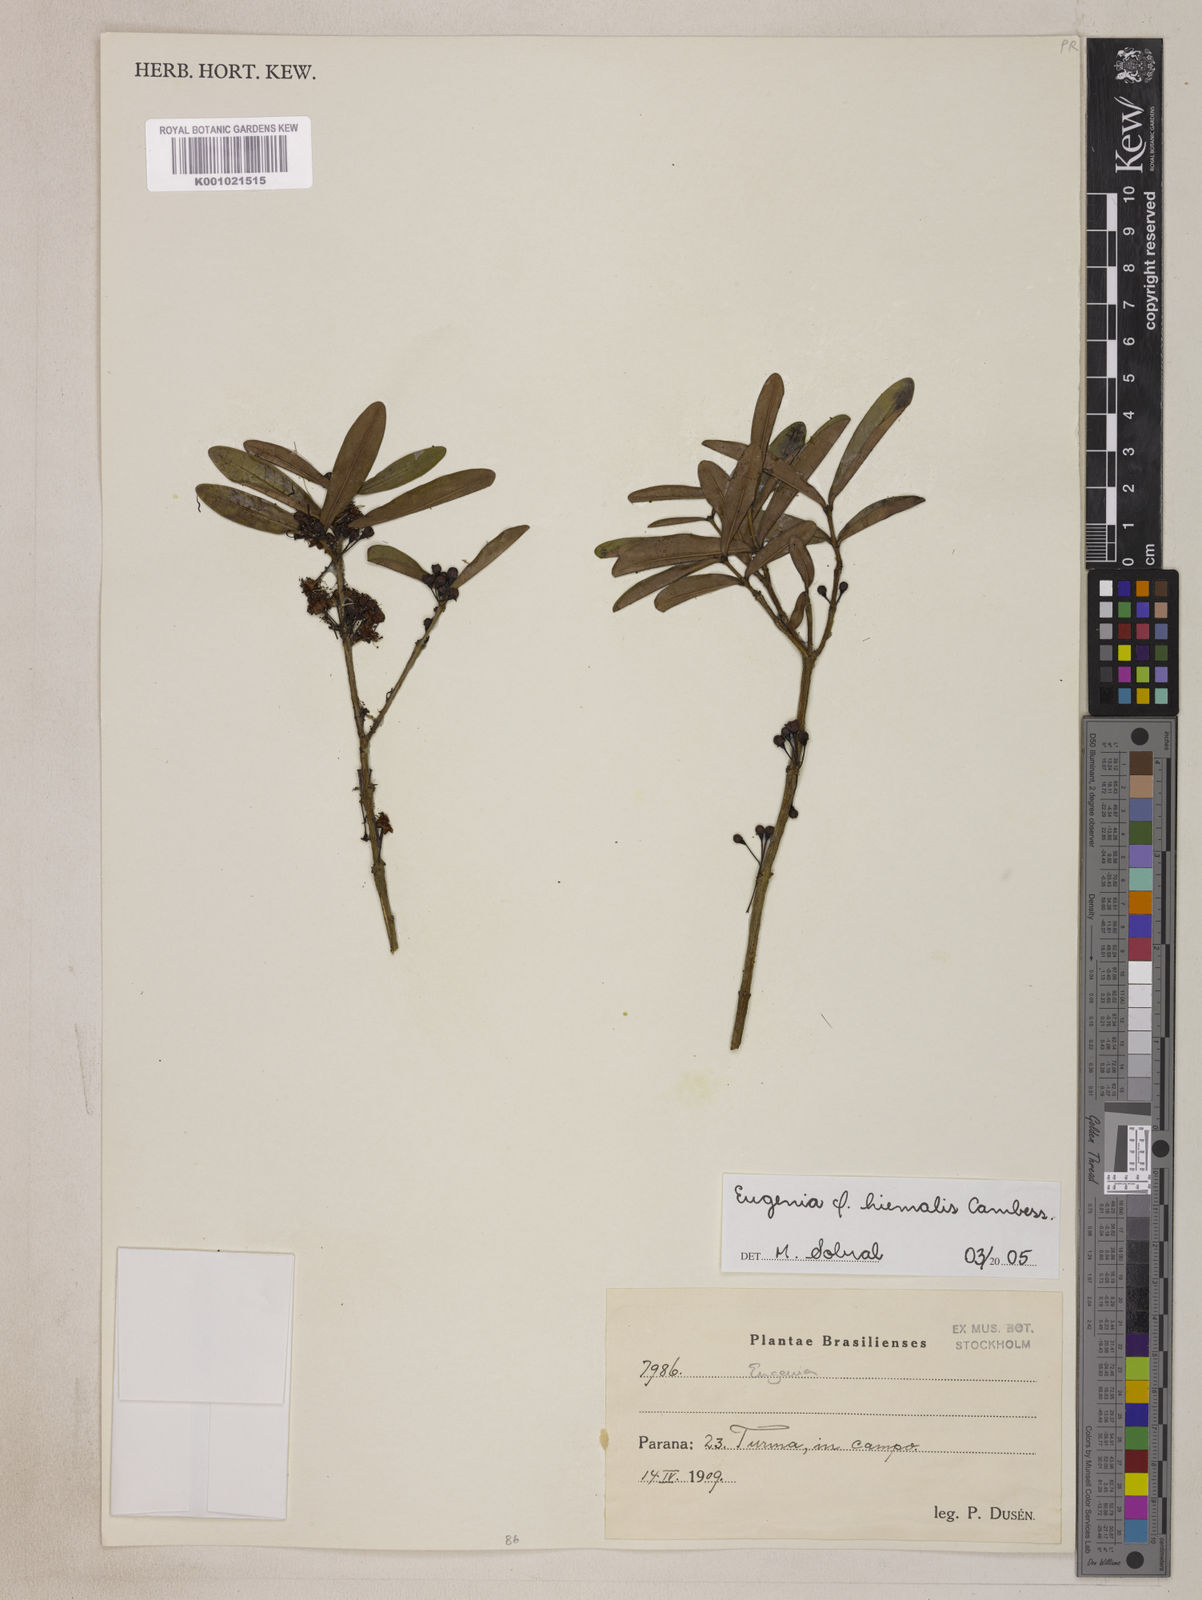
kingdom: Plantae
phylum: Tracheophyta
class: Magnoliopsida
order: Myrtales
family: Myrtaceae
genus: Eugenia
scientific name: Eugenia hiemalis
